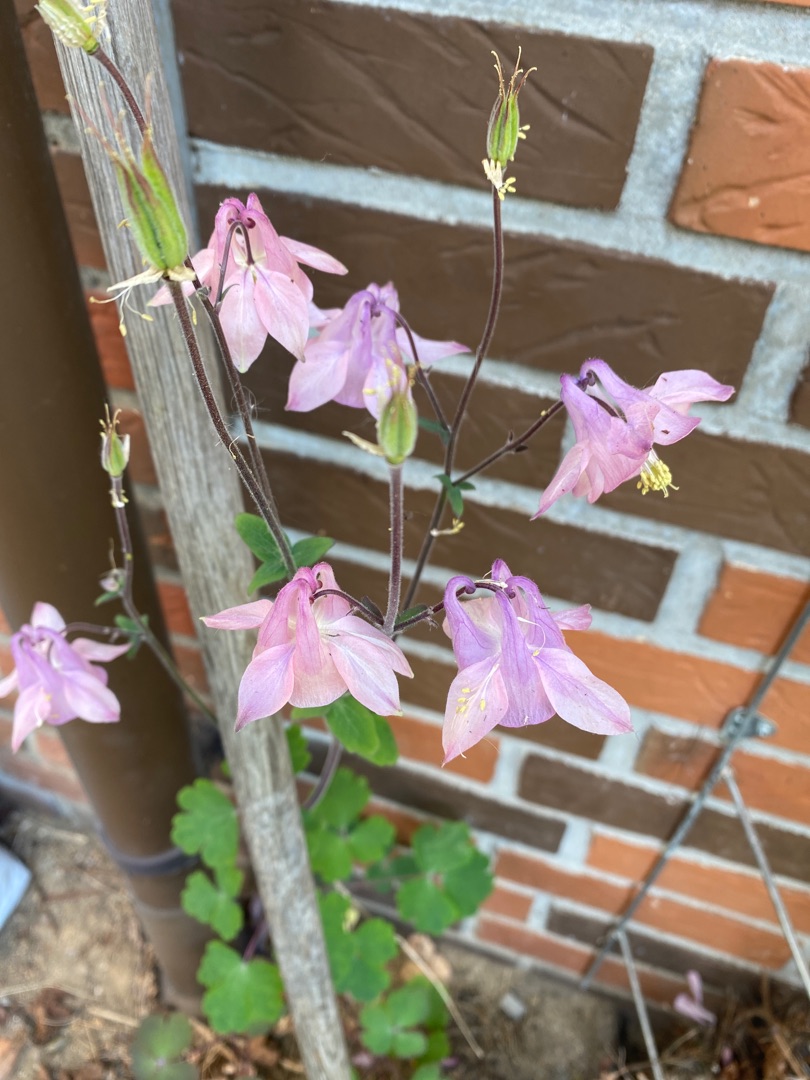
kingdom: Plantae
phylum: Tracheophyta
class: Magnoliopsida
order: Ranunculales
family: Ranunculaceae
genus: Aquilegia
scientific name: Aquilegia vulgaris
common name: Akeleje
